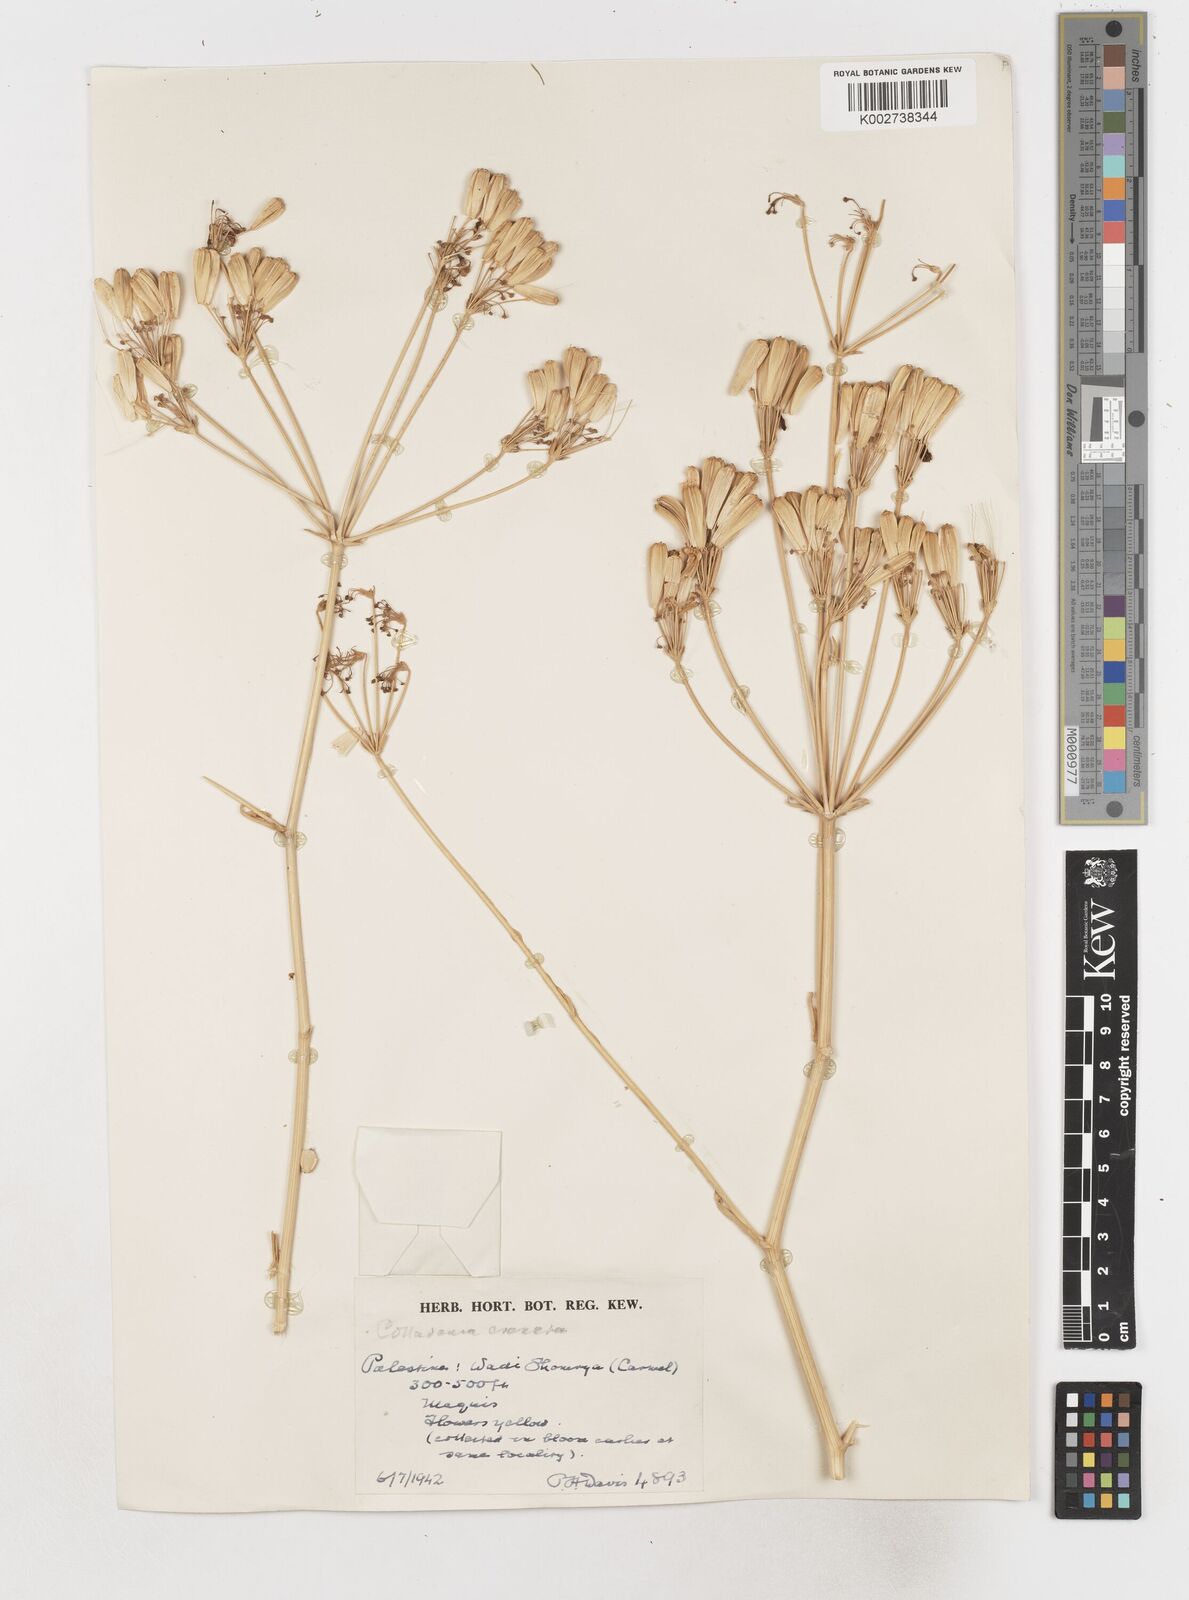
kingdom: Plantae
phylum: Tracheophyta
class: Magnoliopsida
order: Apiales
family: Apiaceae
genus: Heptaptera
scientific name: Heptaptera anisoptera
